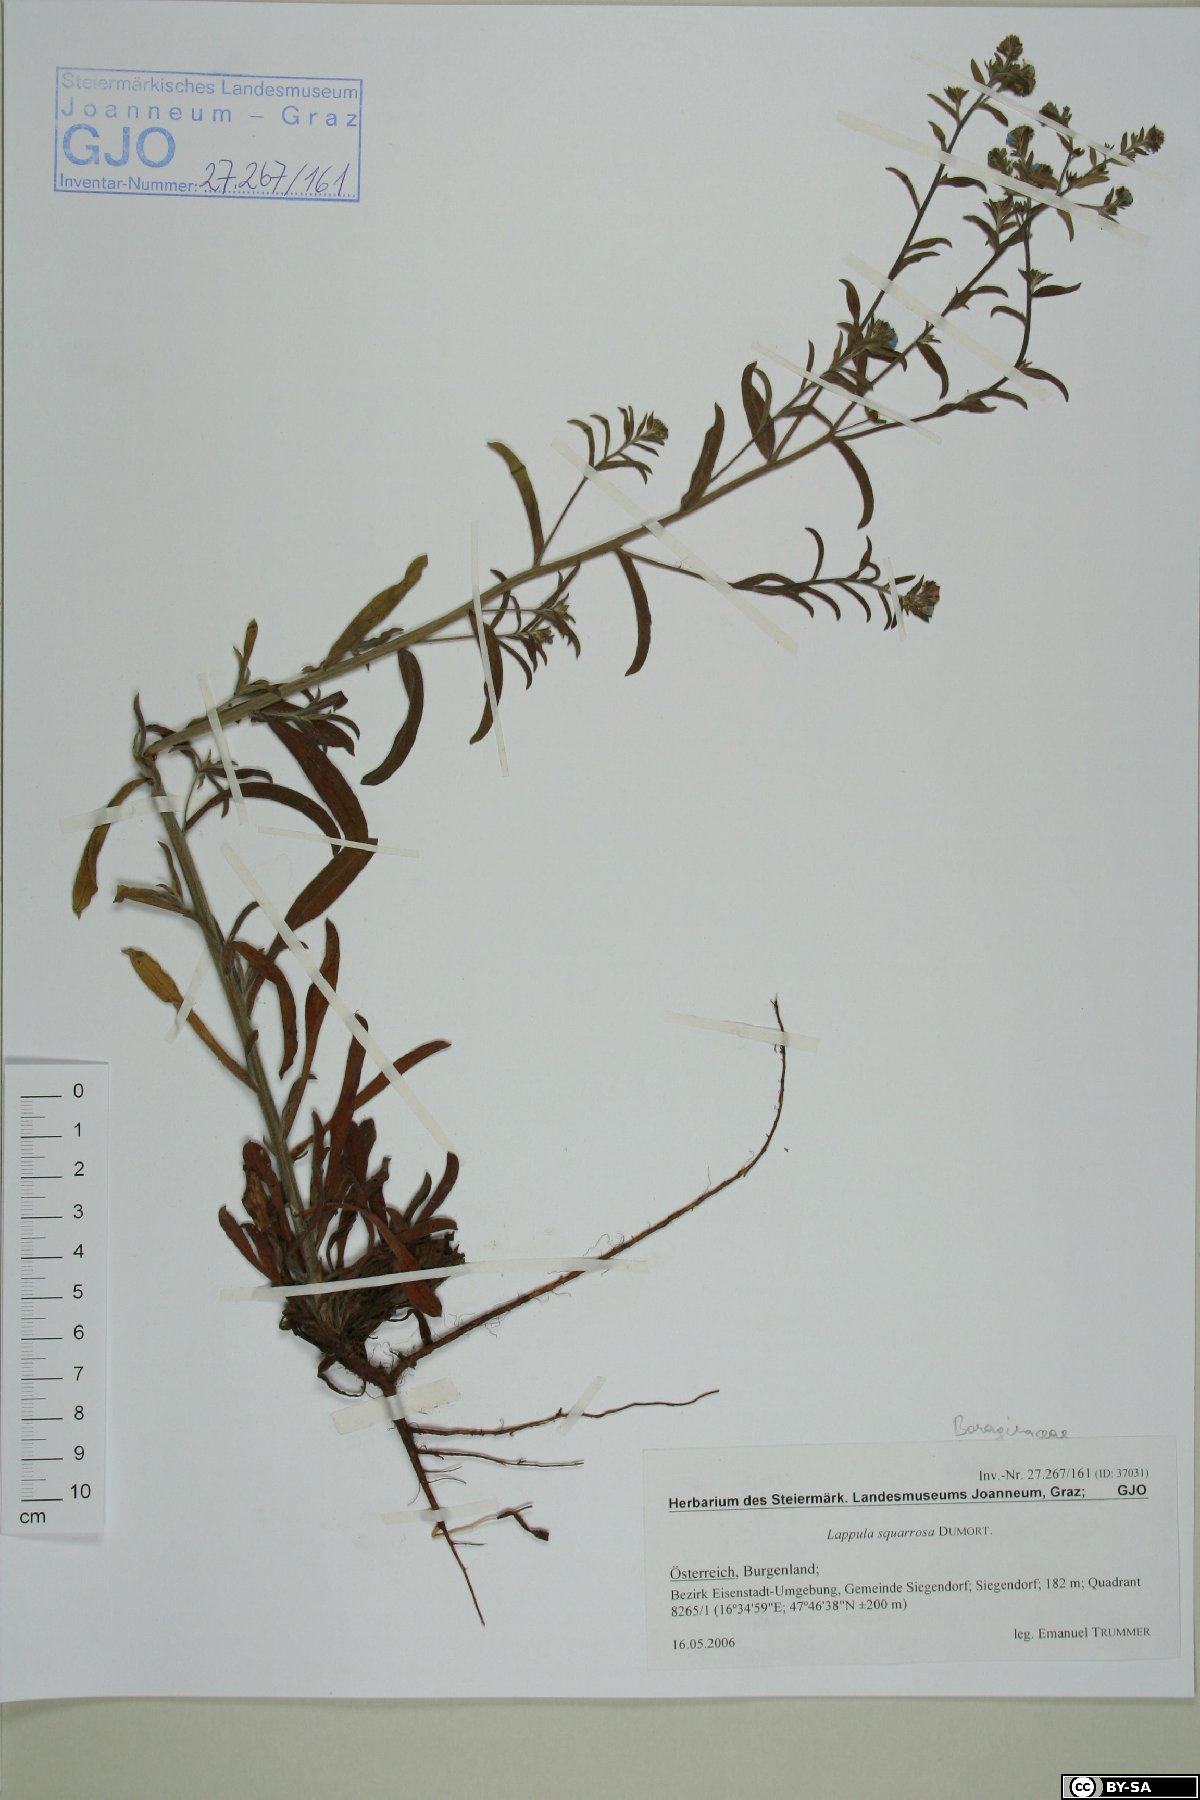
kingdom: Plantae
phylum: Tracheophyta
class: Magnoliopsida
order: Boraginales
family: Boraginaceae
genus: Lappula
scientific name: Lappula squarrosa
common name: European stickseed
